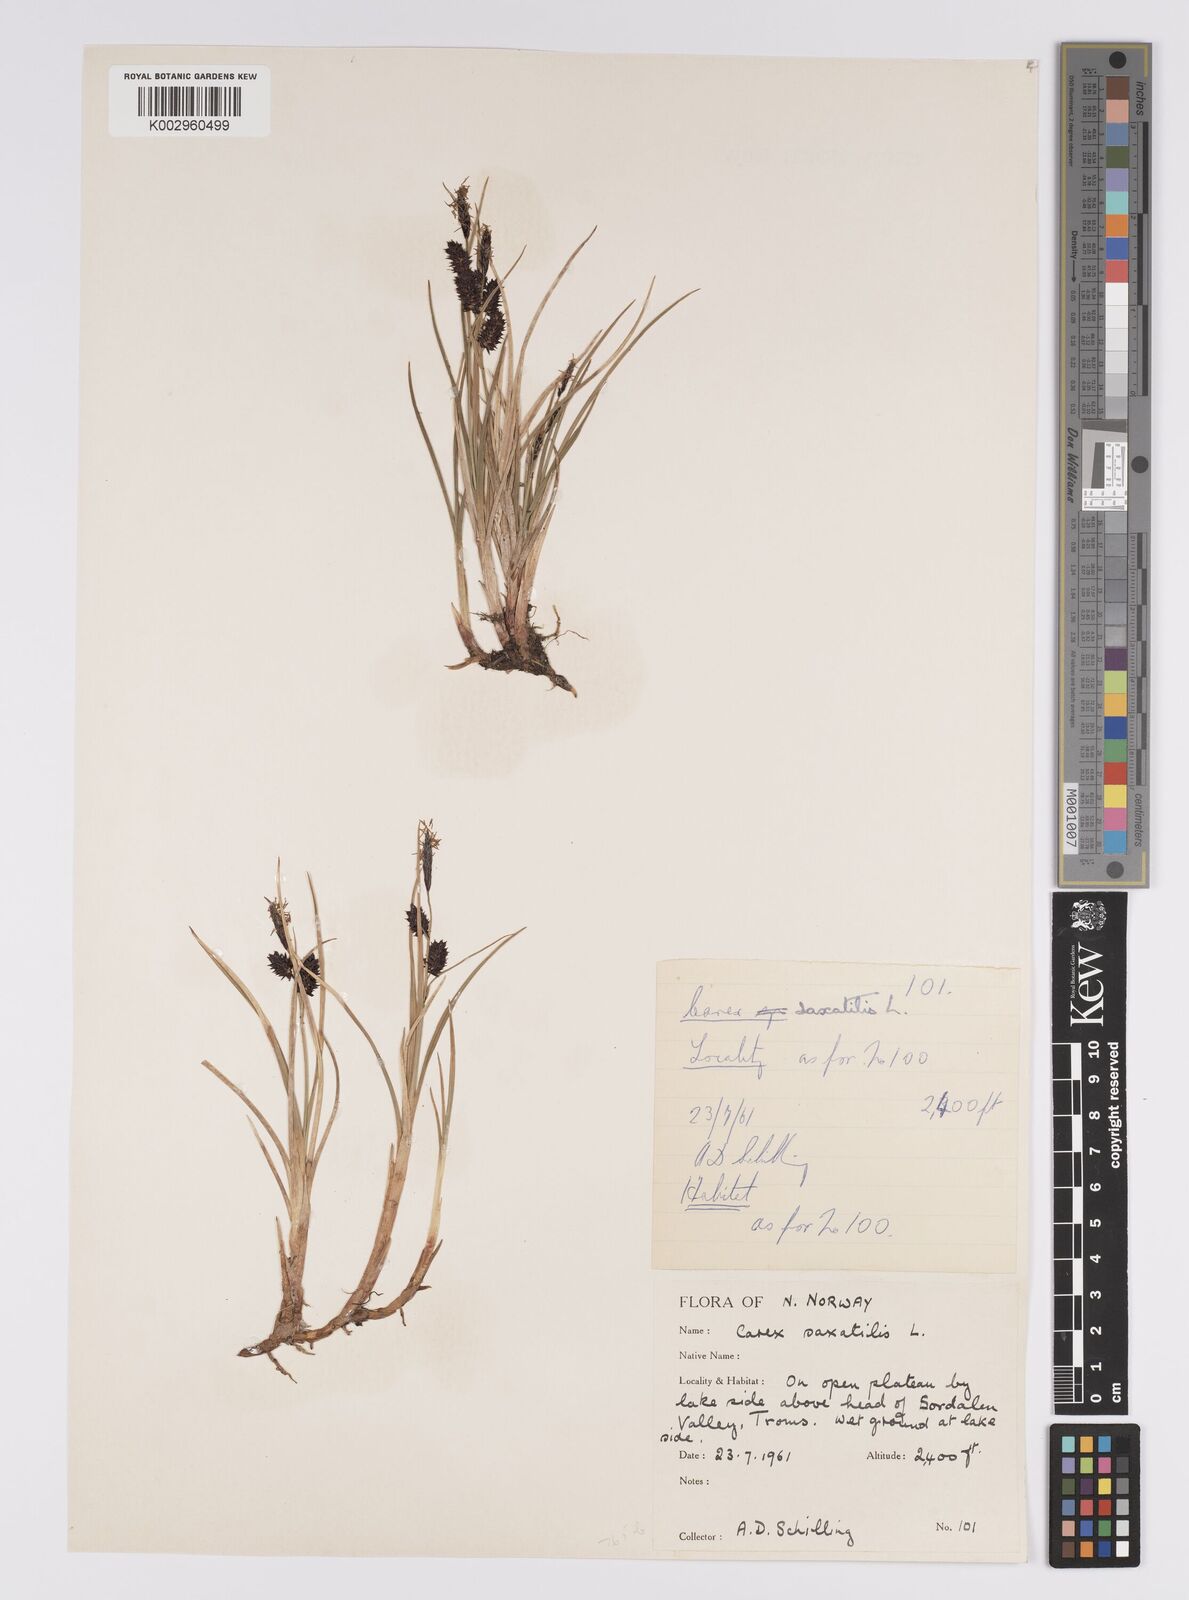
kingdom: Plantae
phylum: Tracheophyta
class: Liliopsida
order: Poales
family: Cyperaceae
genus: Carex
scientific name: Carex saxatilis
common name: Russet sedge
